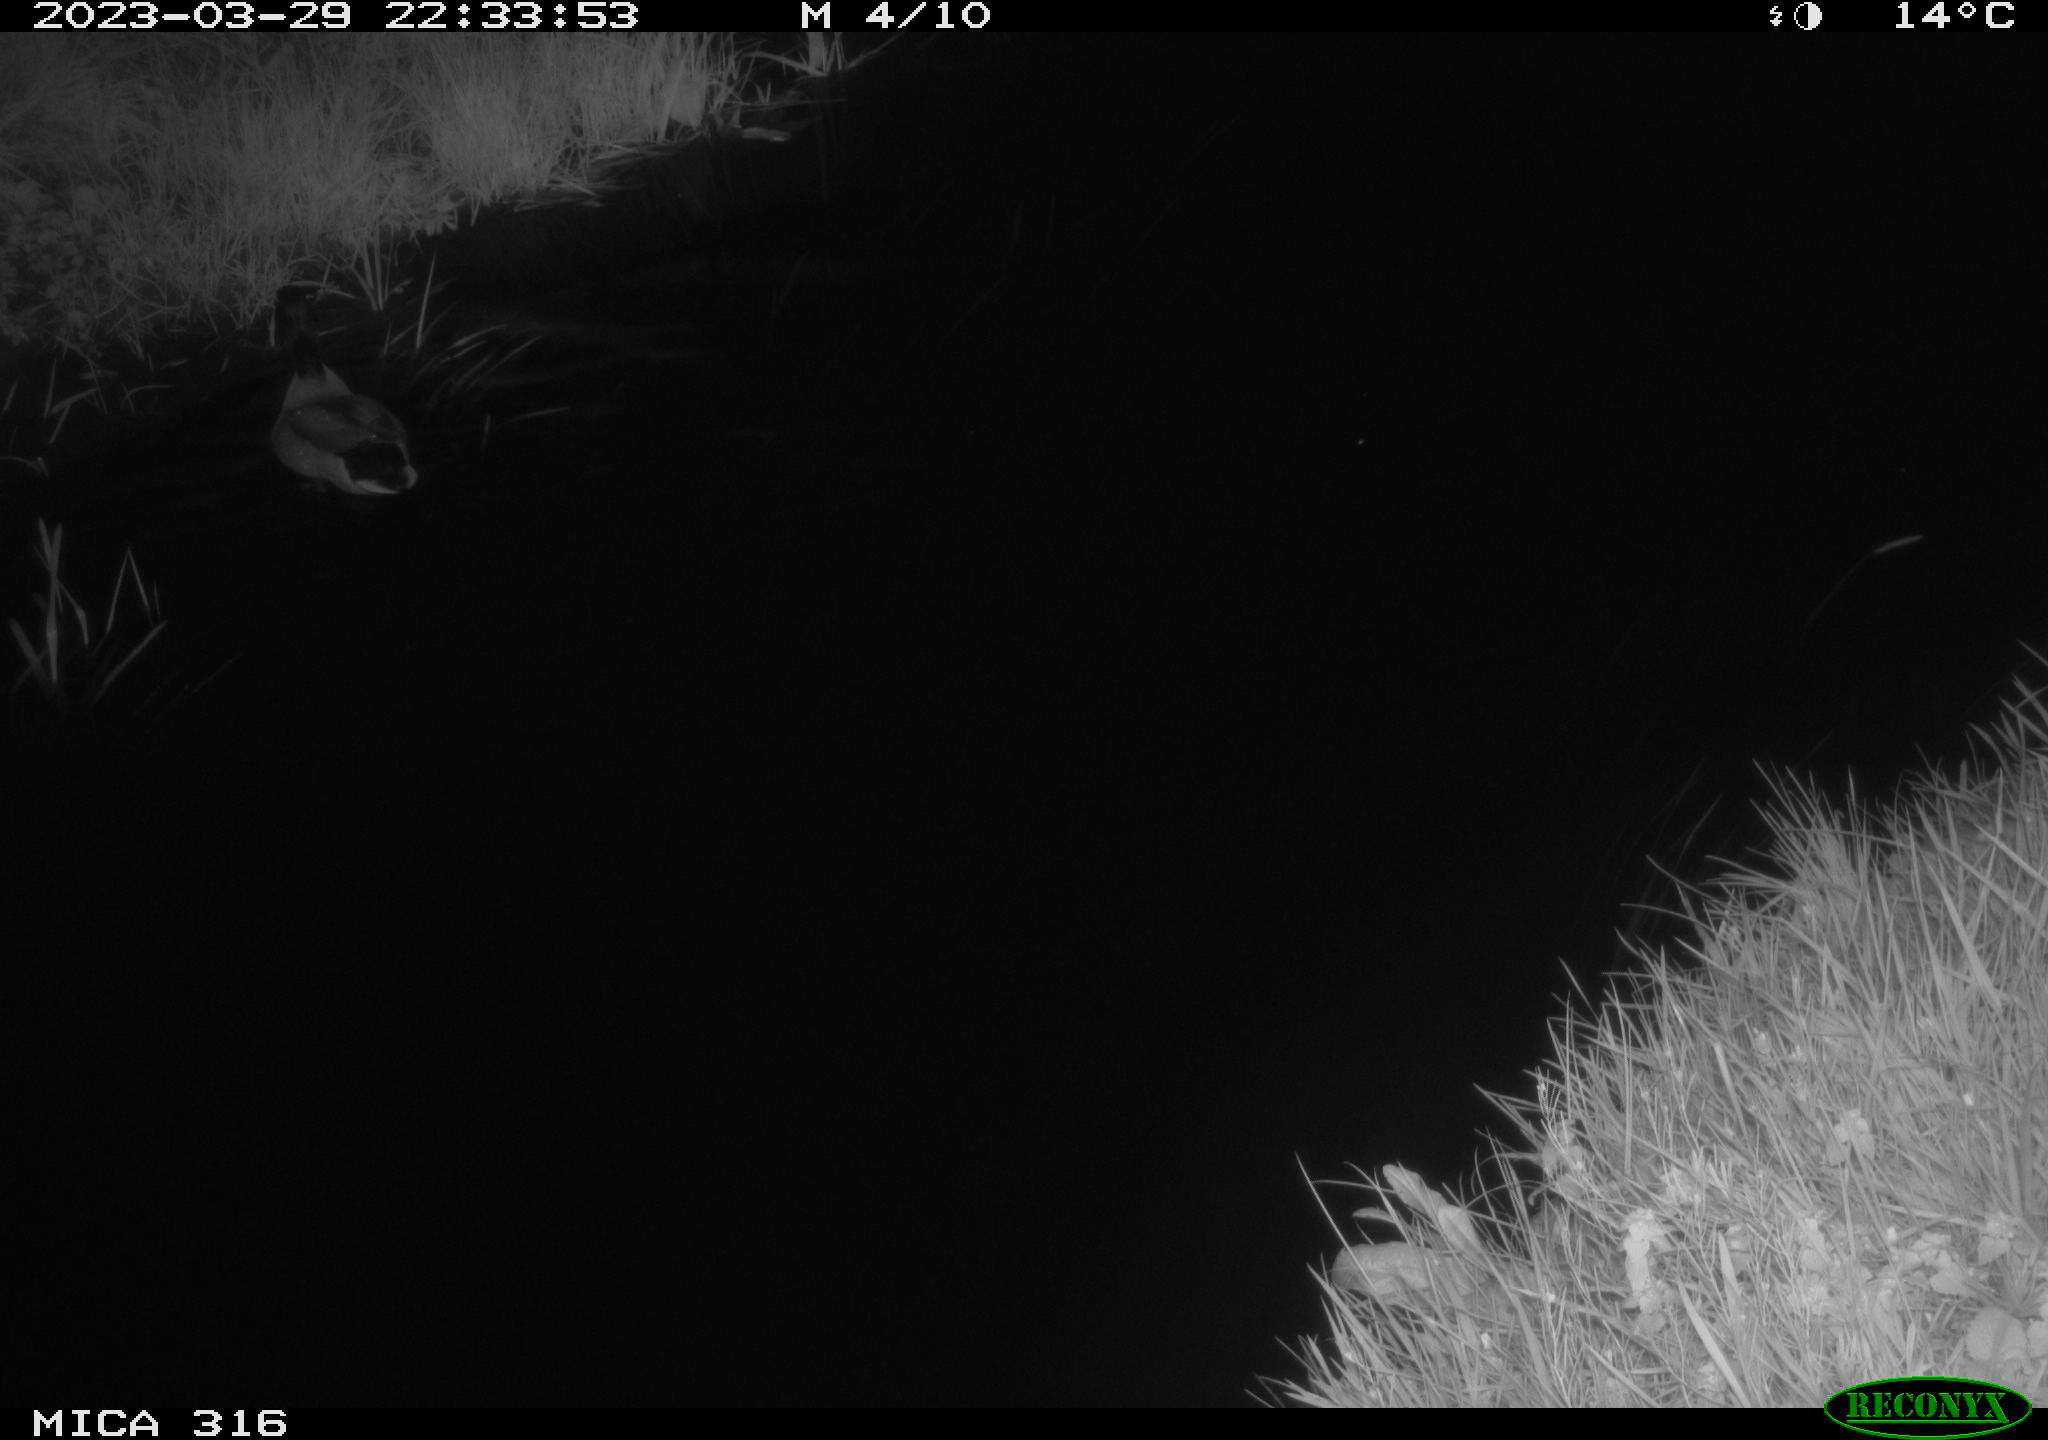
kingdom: Animalia
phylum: Chordata
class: Aves
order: Anseriformes
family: Anatidae
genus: Anas
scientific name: Anas
